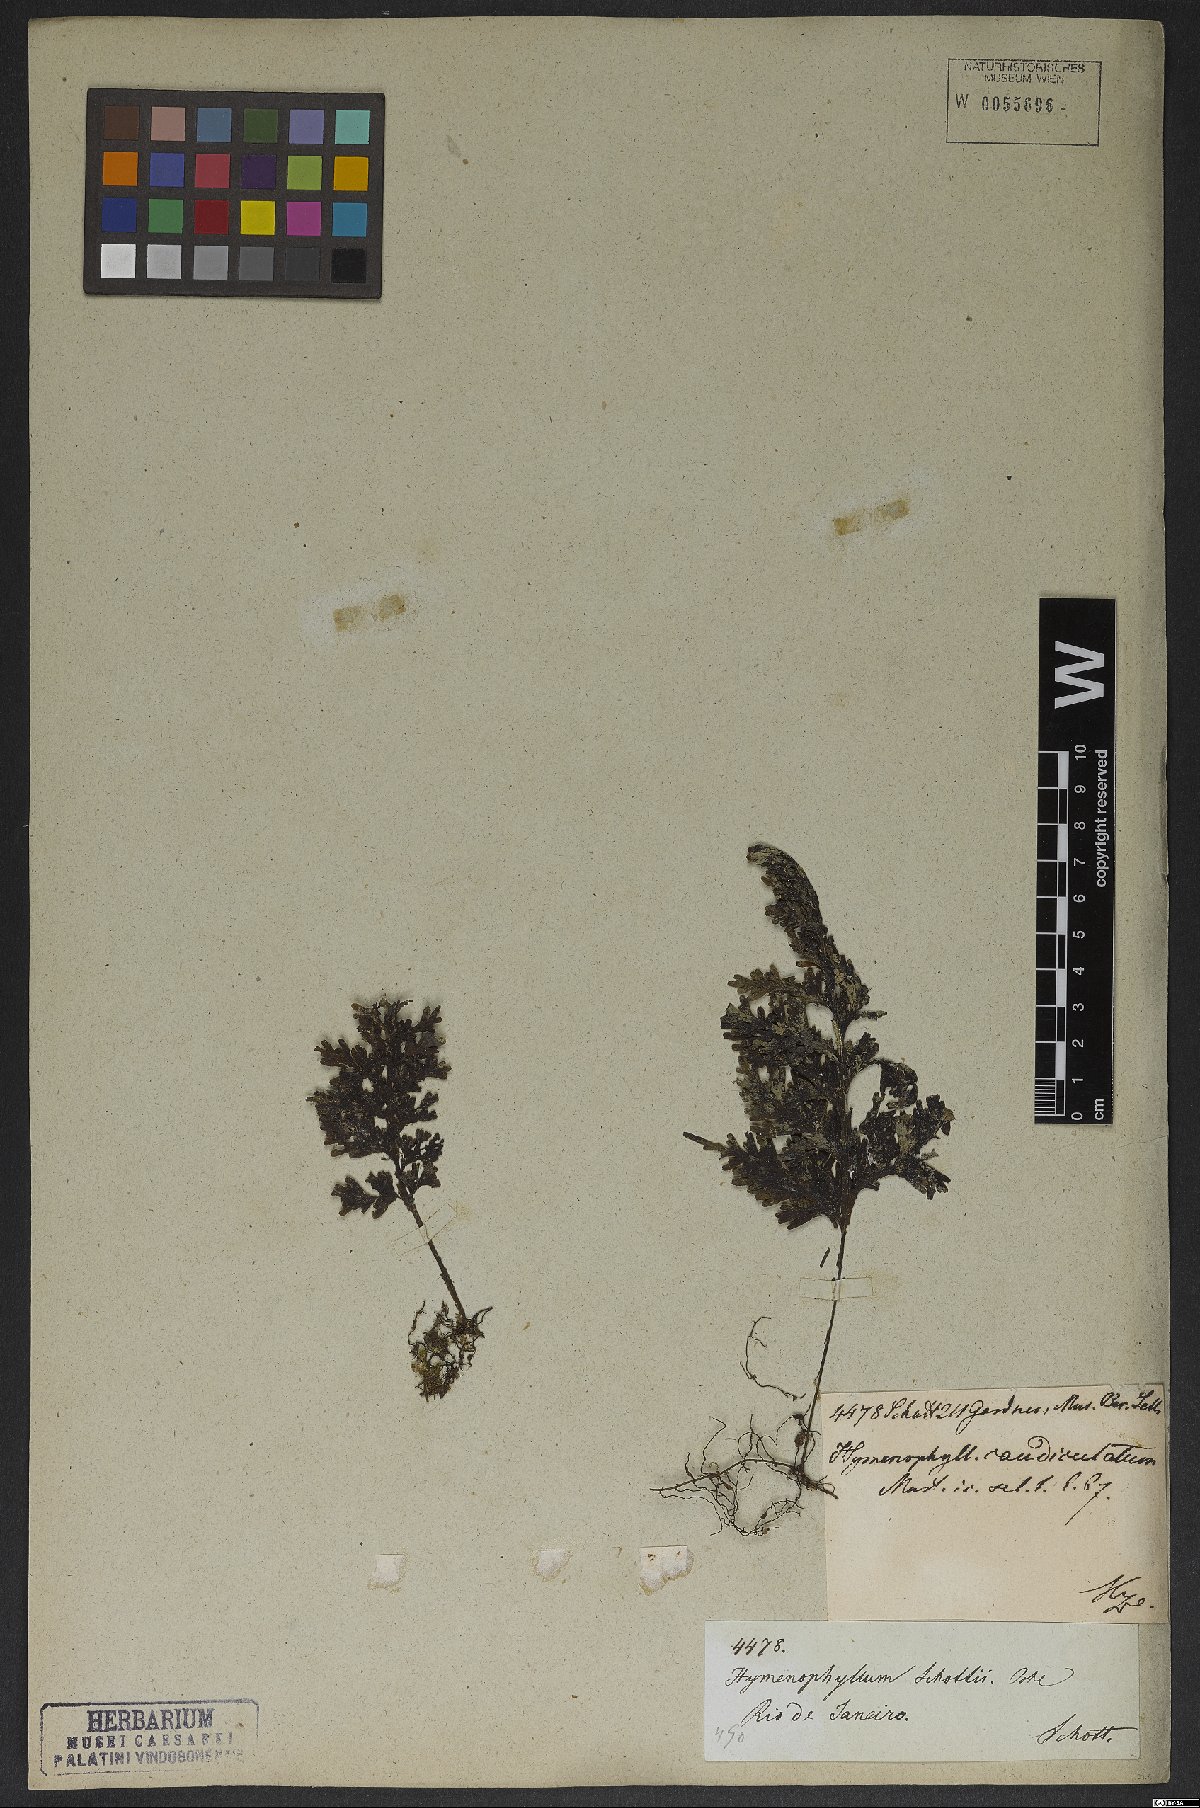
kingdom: Plantae
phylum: Tracheophyta
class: Polypodiopsida
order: Hymenophyllales
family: Hymenophyllaceae
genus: Hymenophyllum
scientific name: Hymenophyllum asplenioides
